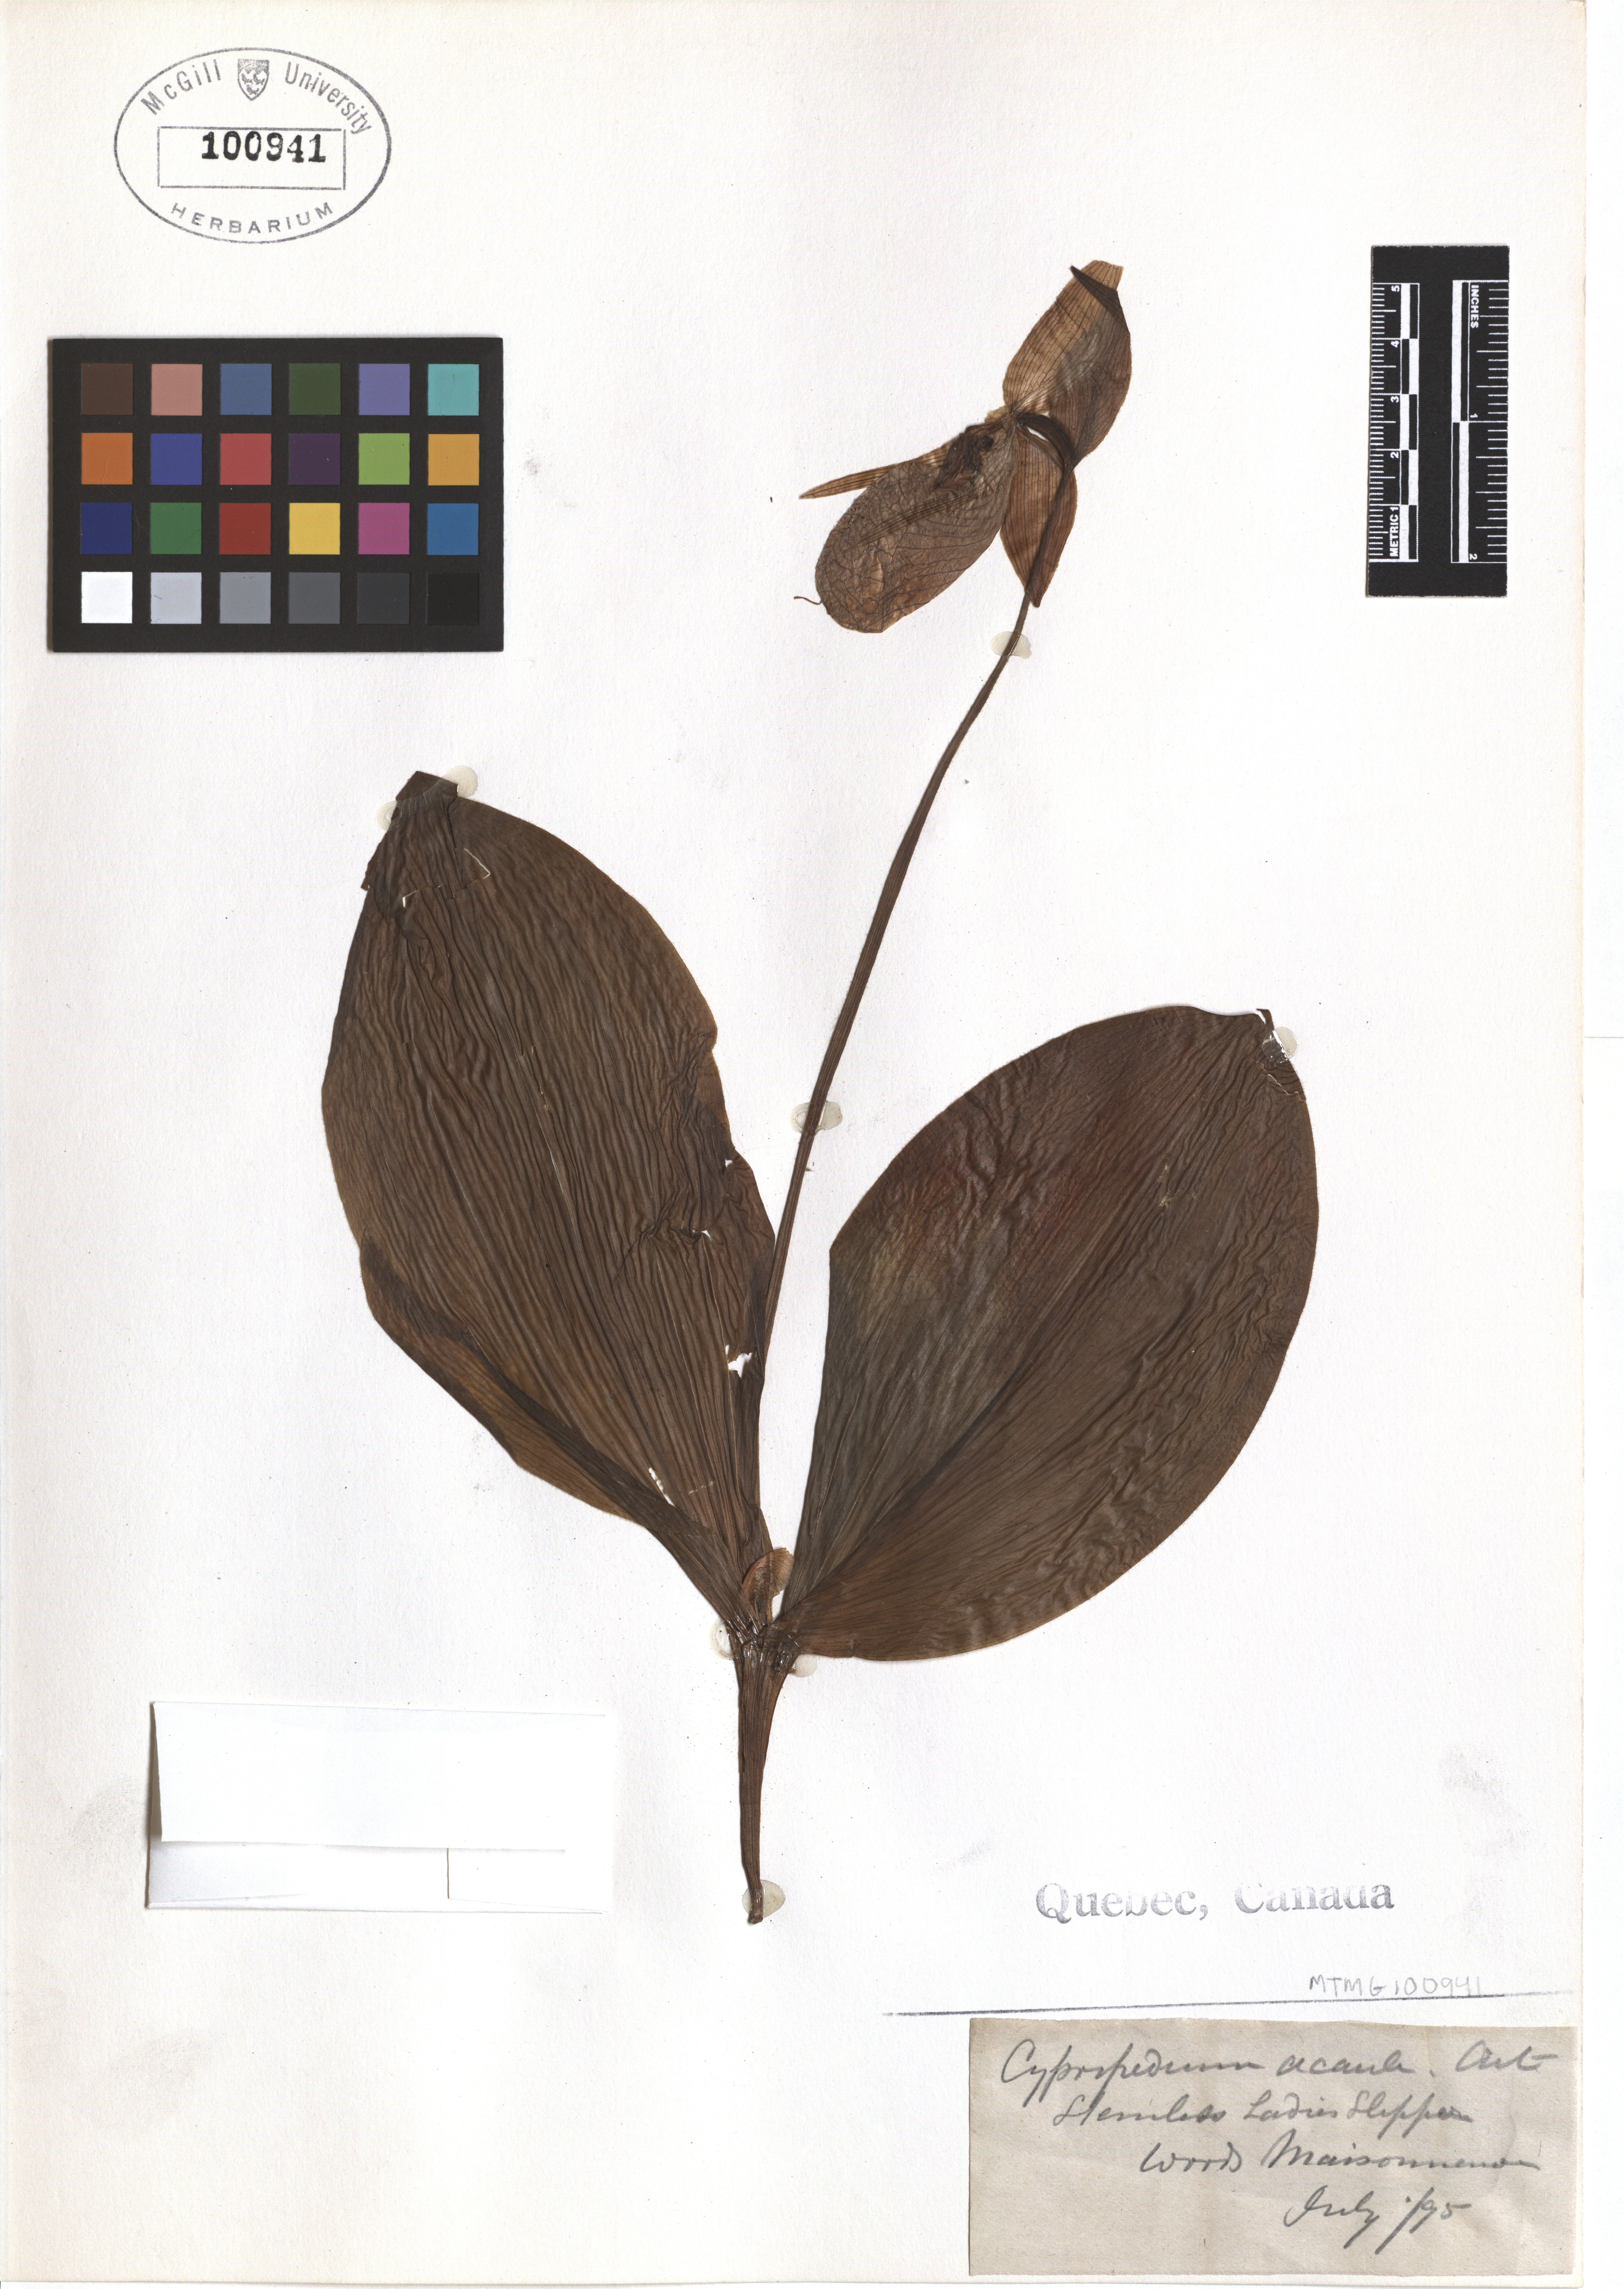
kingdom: Plantae
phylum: Tracheophyta
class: Liliopsida
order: Asparagales
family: Orchidaceae
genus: Cypripedium
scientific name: Cypripedium acaule
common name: Pink lady's-slipper
